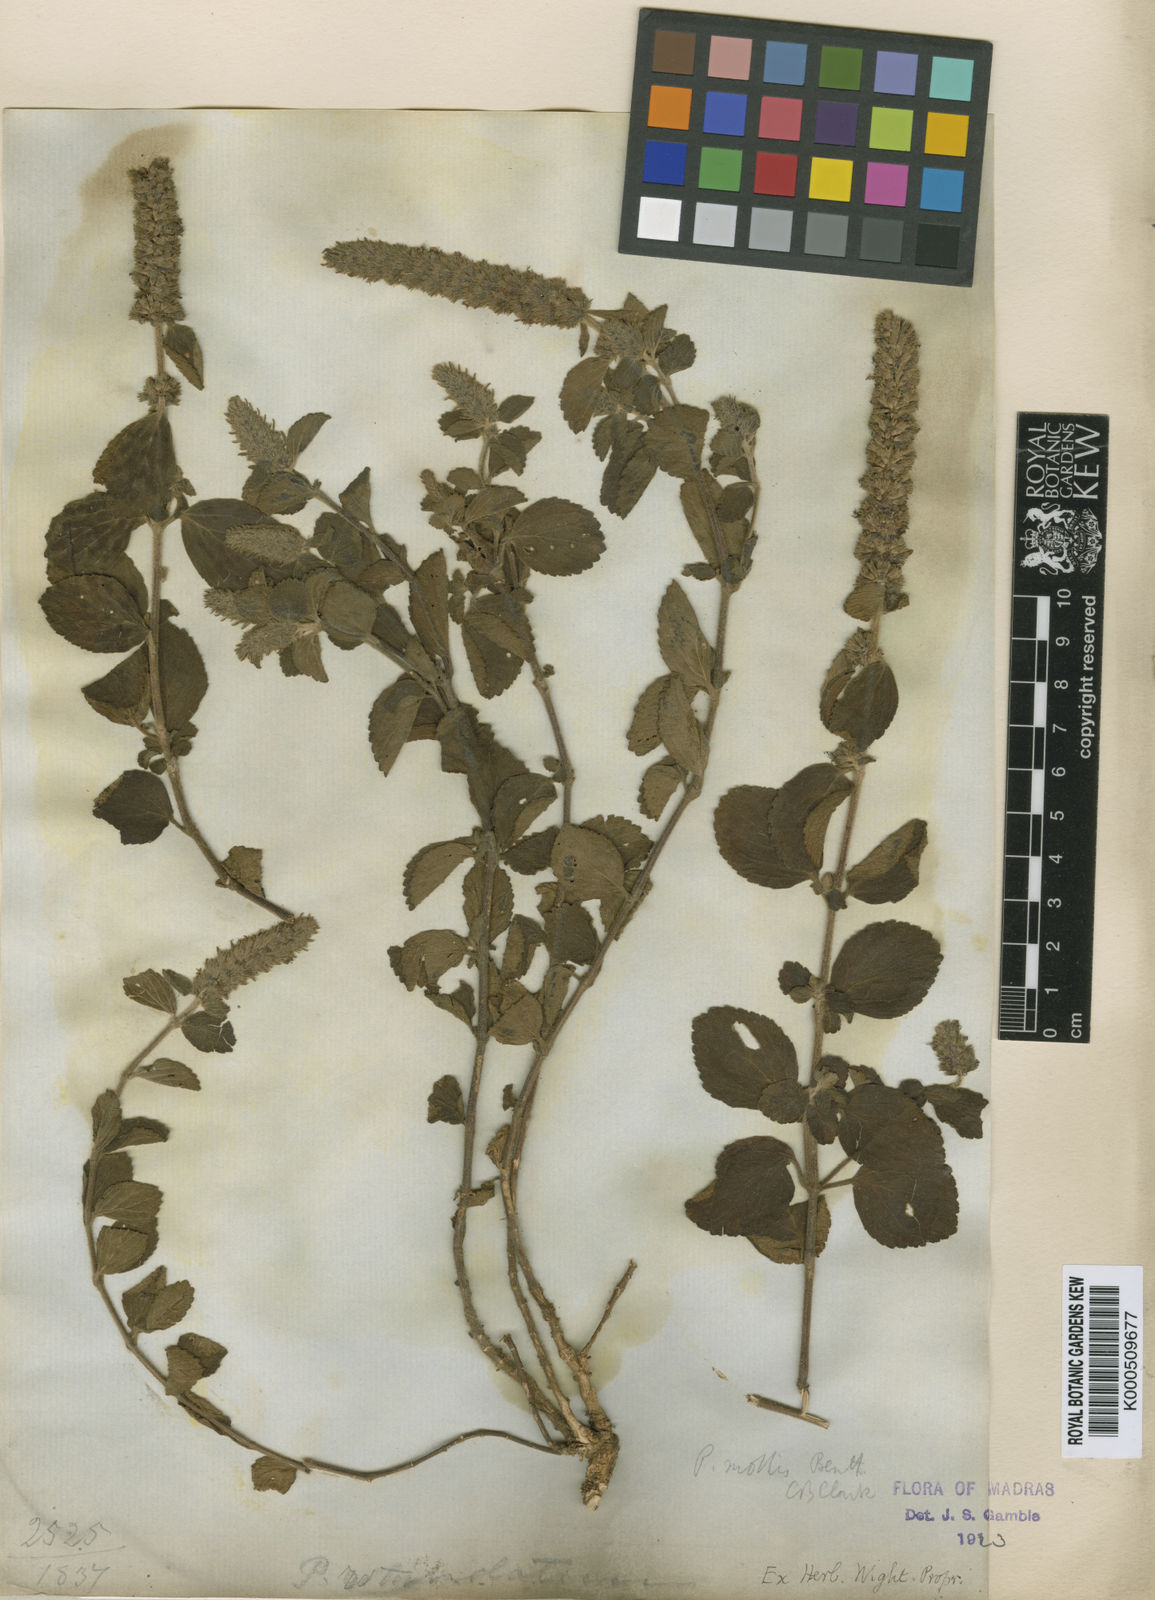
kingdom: Plantae
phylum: Tracheophyta
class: Magnoliopsida
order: Lamiales
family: Lamiaceae
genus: Pogostemon
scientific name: Pogostemon mollis
